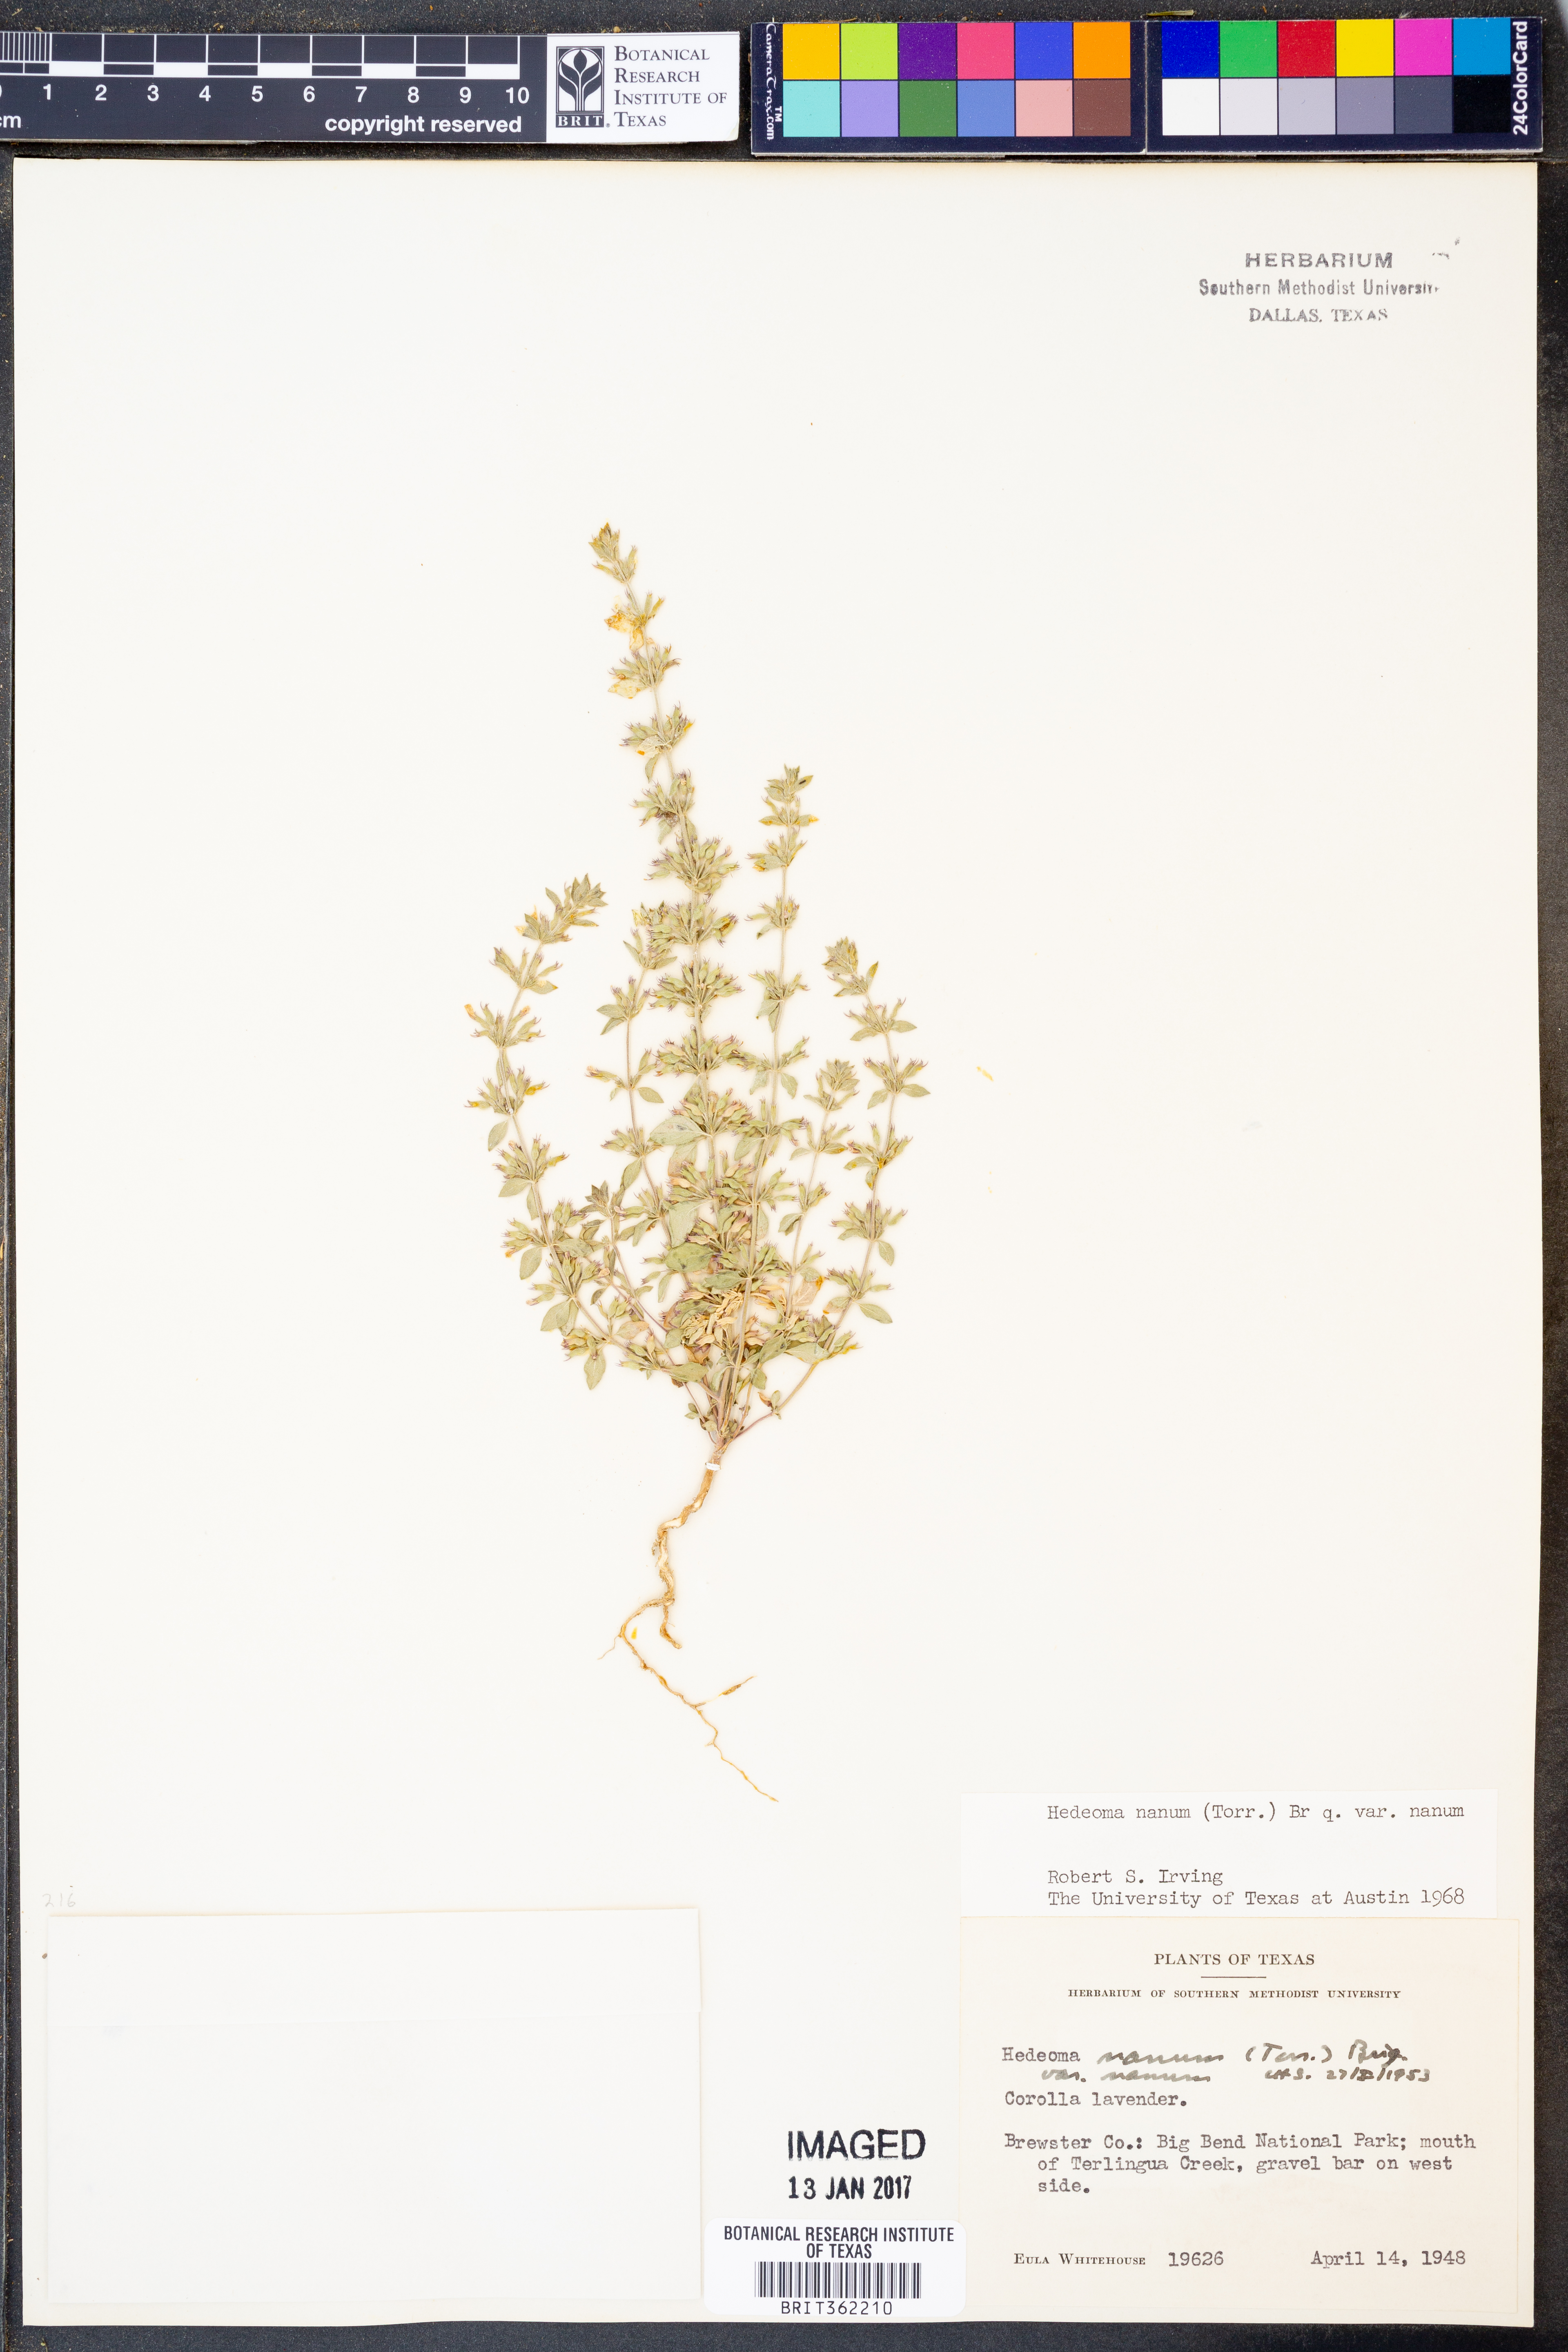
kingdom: Plantae
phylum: Tracheophyta
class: Magnoliopsida
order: Lamiales
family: Lamiaceae
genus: Hedeoma
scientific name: Hedeoma nana
